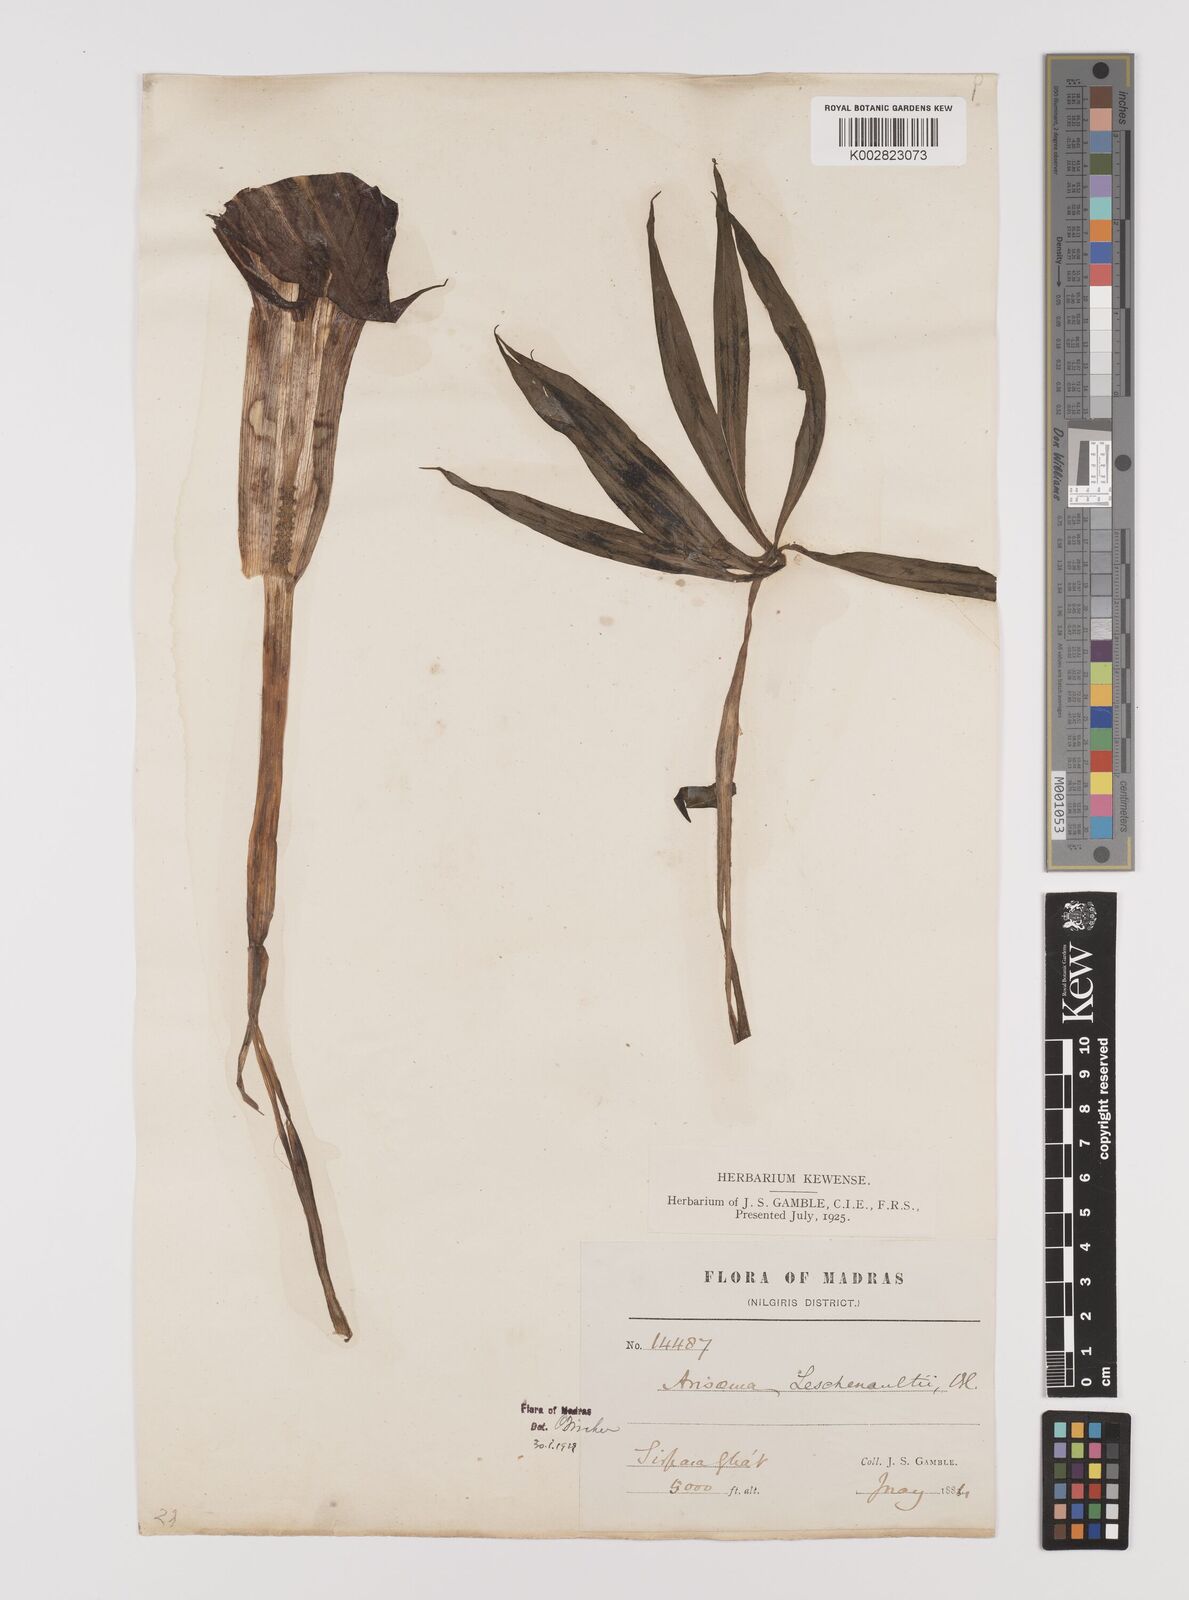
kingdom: Plantae
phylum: Tracheophyta
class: Liliopsida
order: Alismatales
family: Araceae
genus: Arisaema
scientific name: Arisaema leschenaultii
